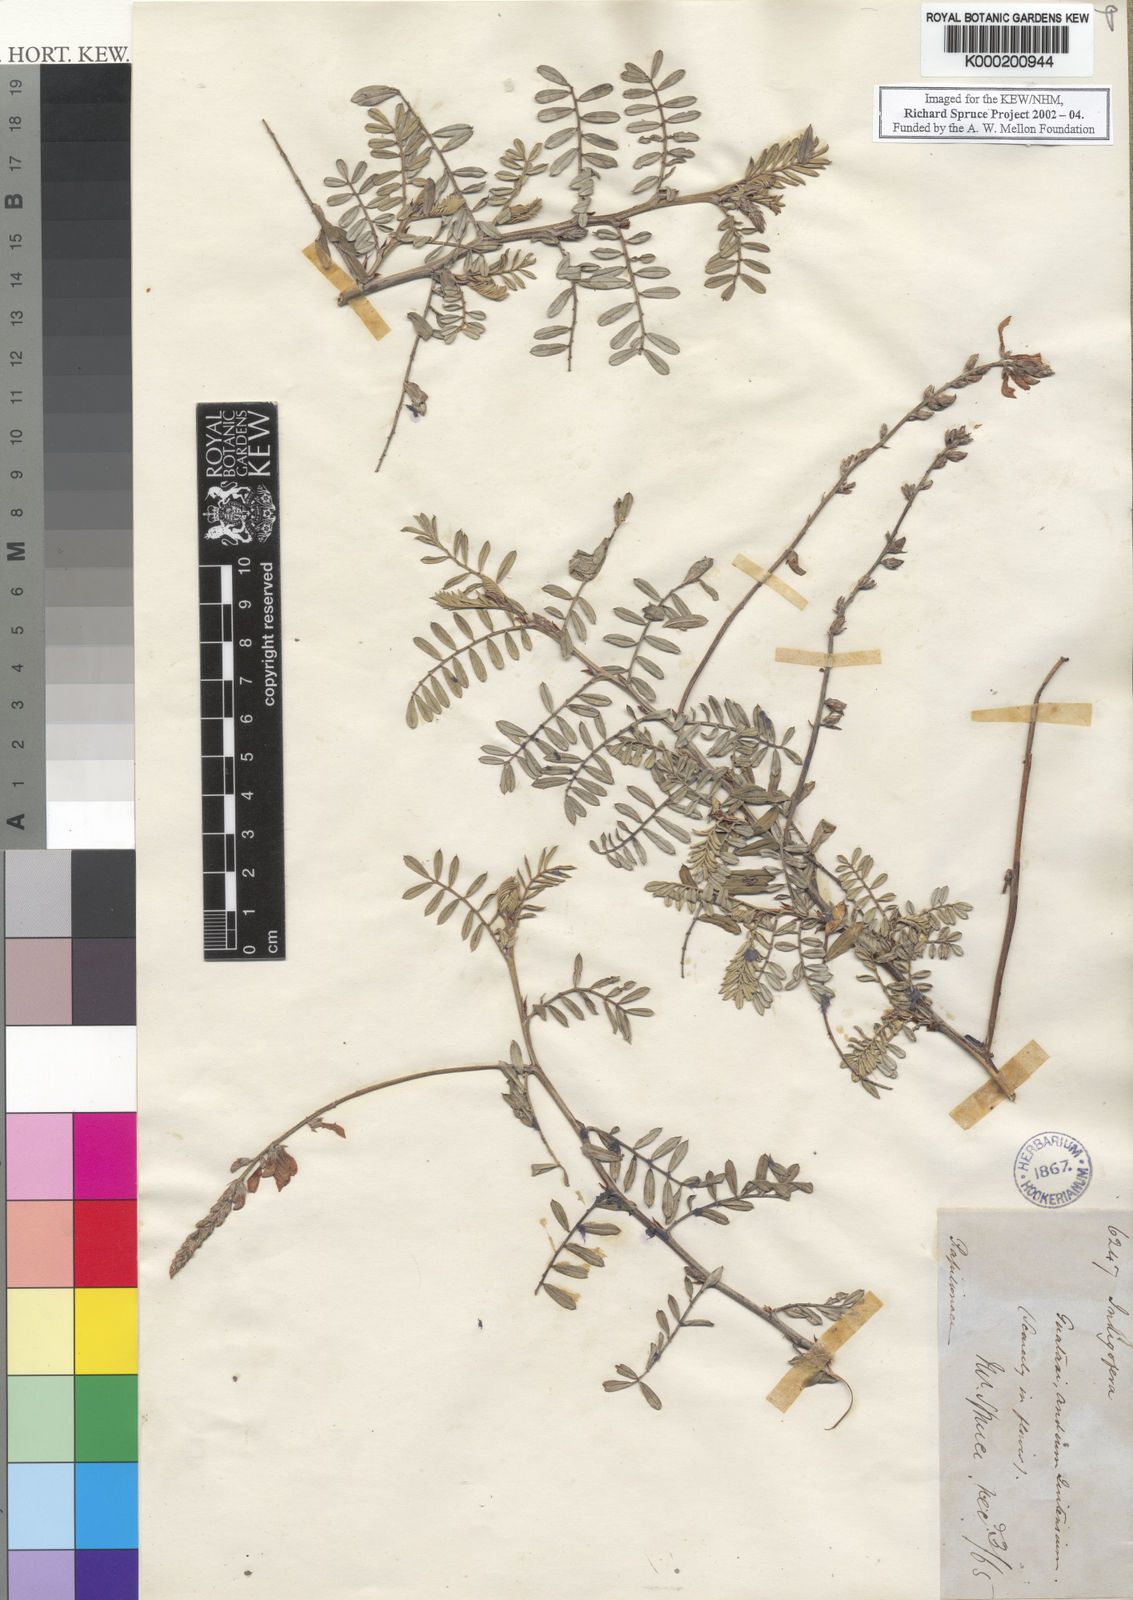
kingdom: Plantae
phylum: Tracheophyta
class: Magnoliopsida
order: Fabales
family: Fabaceae
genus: Indigofera
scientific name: Indigofera tephrosioides
